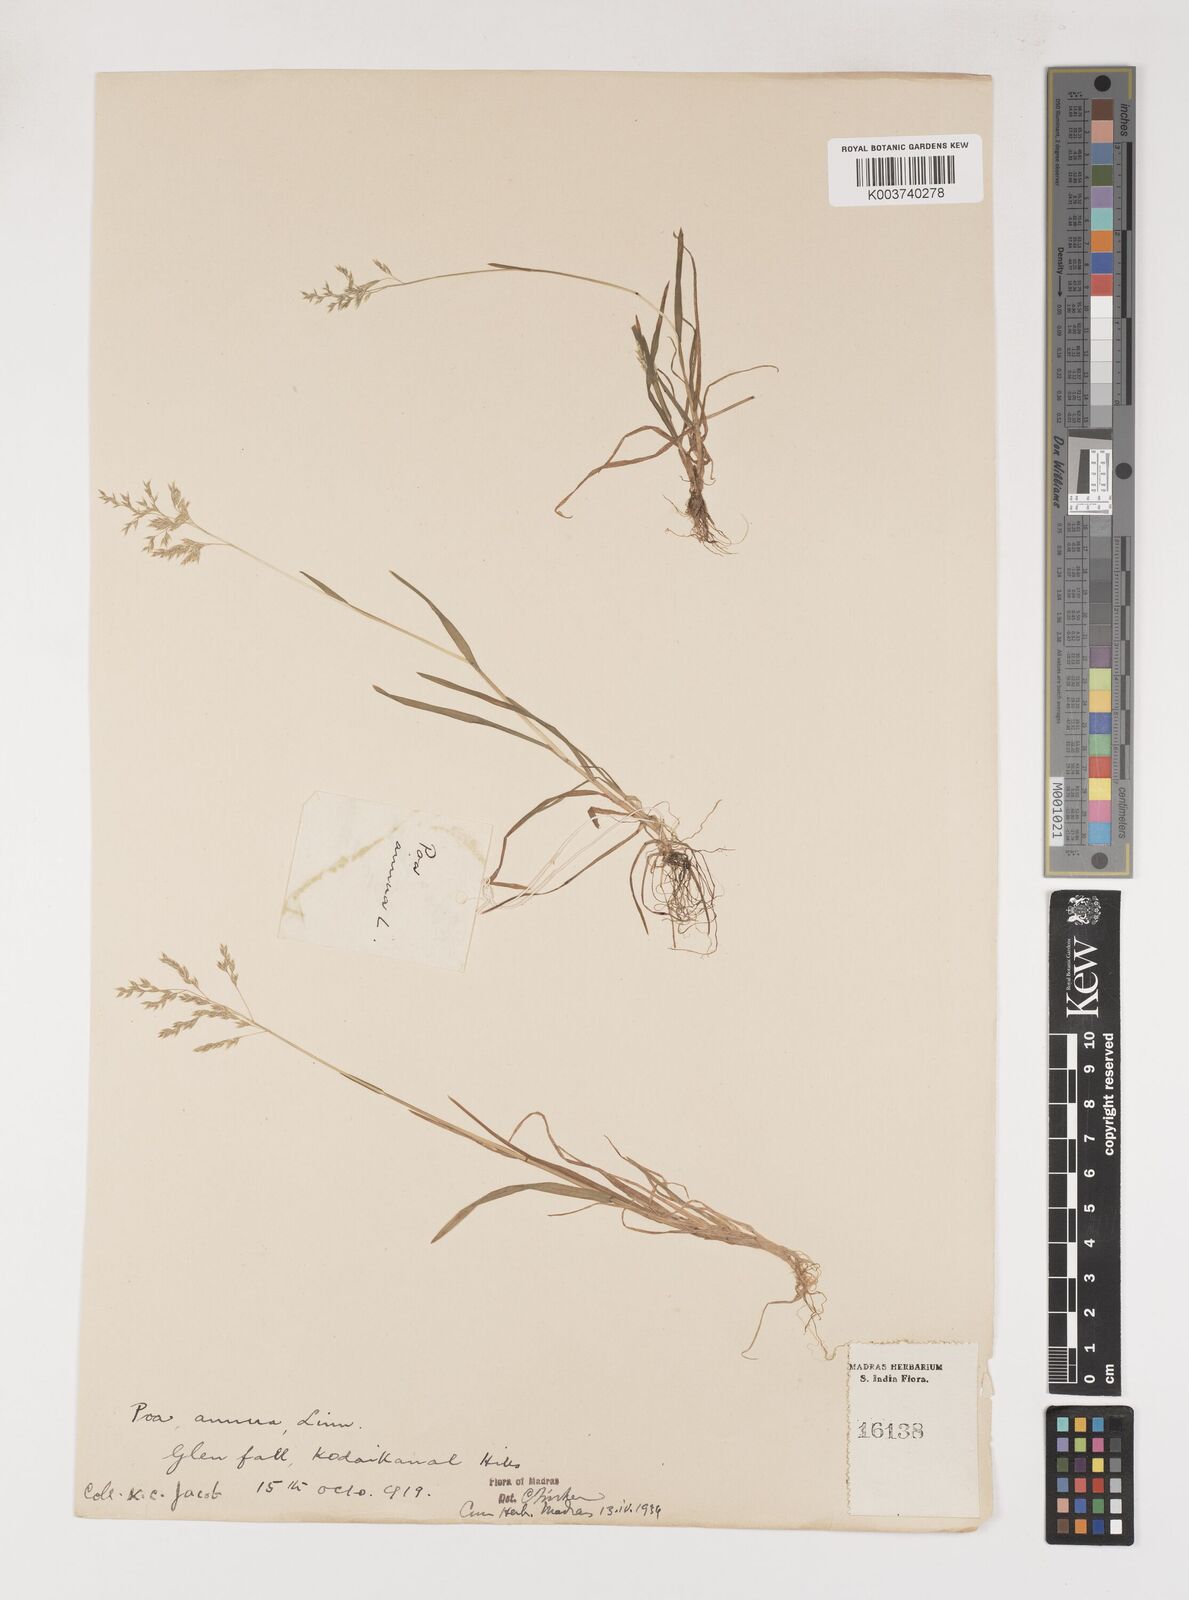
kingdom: Plantae
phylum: Tracheophyta
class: Liliopsida
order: Poales
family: Poaceae
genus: Poa
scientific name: Poa annua
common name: Annual bluegrass
